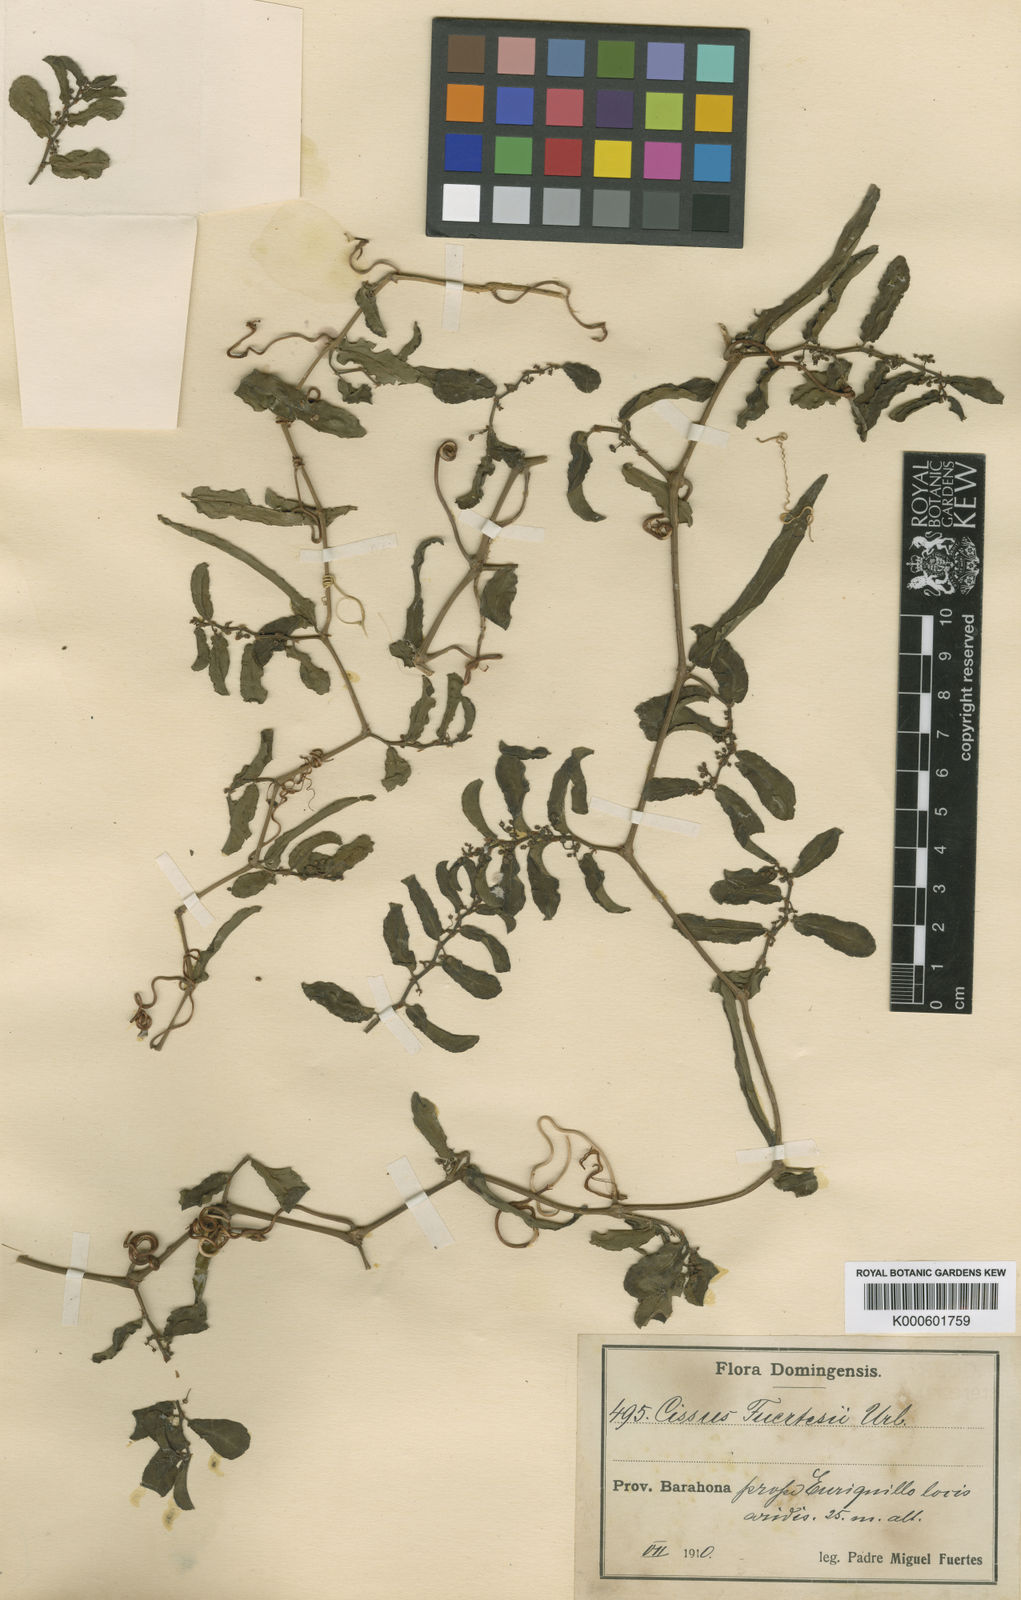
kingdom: Plantae
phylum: Tracheophyta
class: Magnoliopsida
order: Vitales
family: Vitaceae
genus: Cissus
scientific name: Cissus picardae
